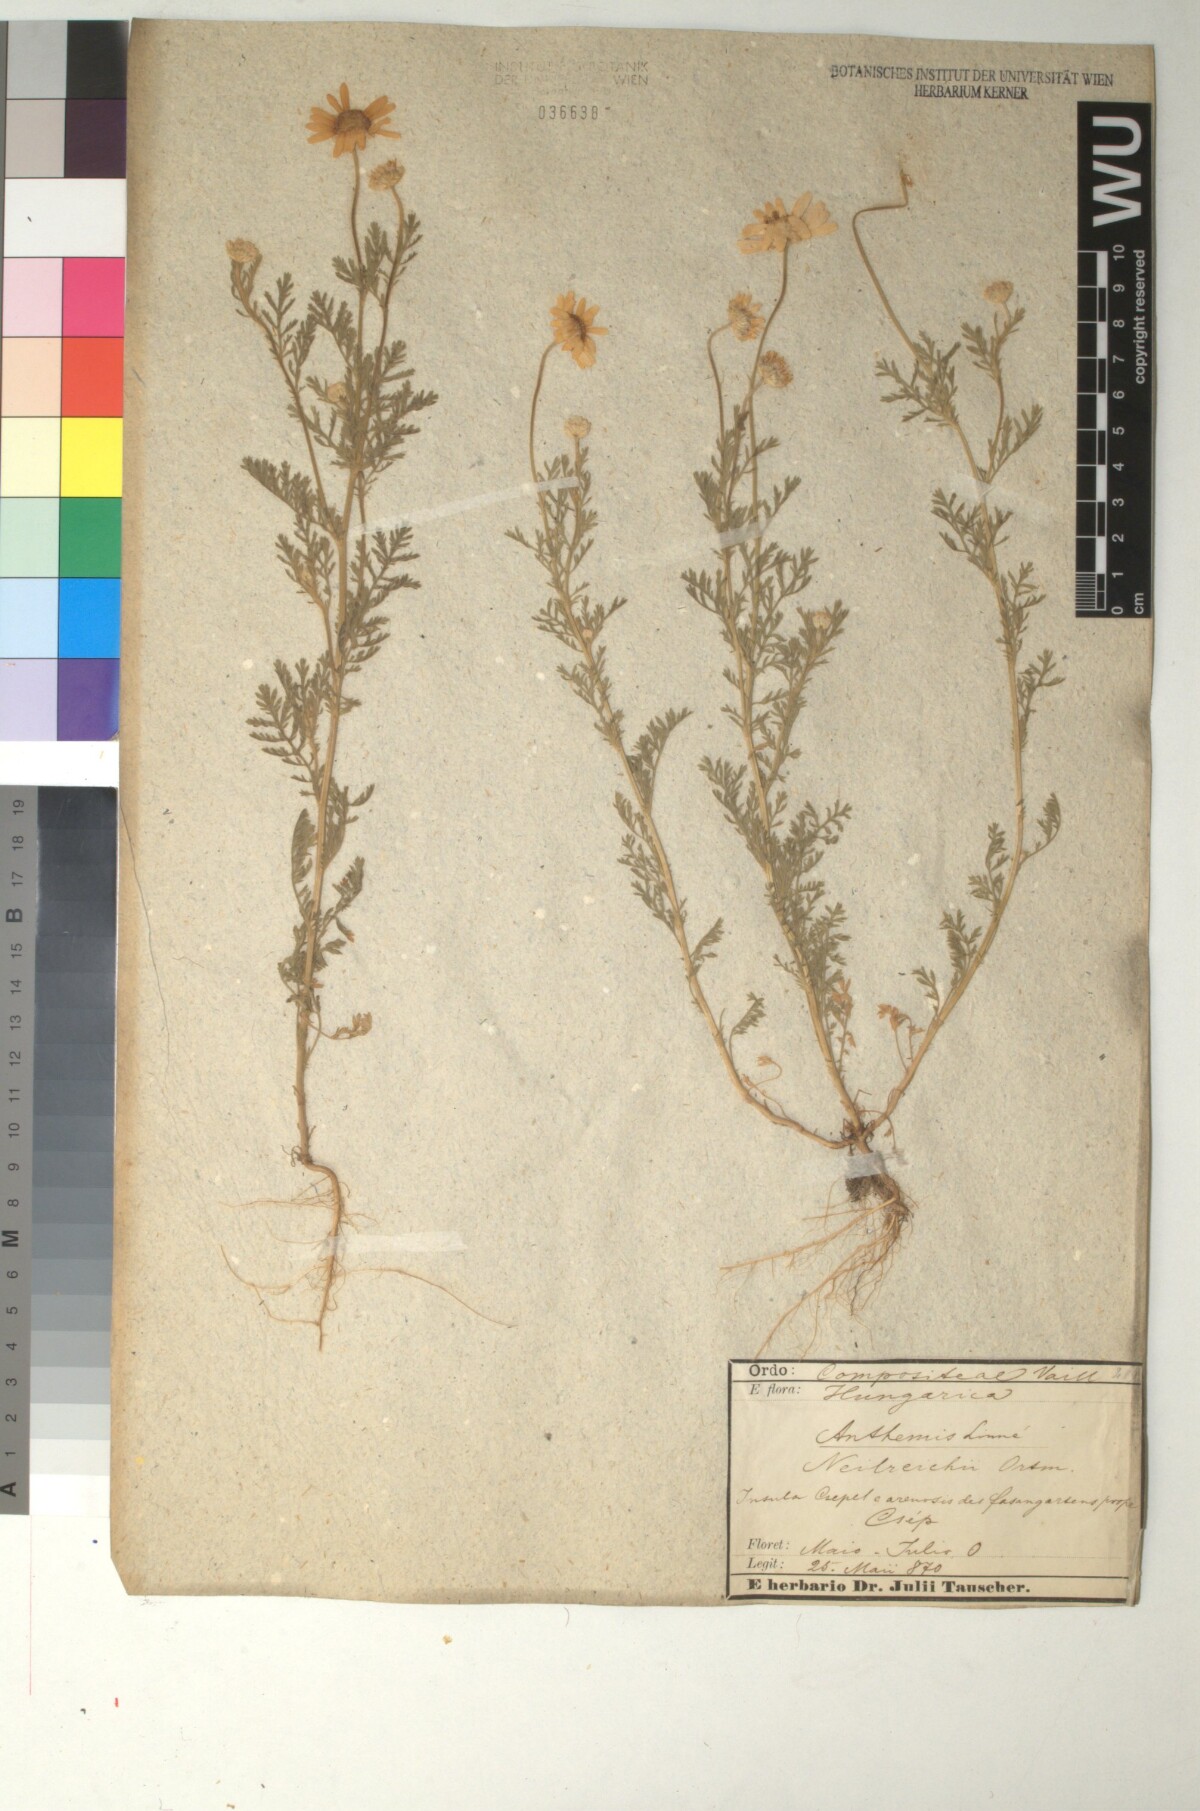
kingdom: Plantae
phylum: Tracheophyta
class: Magnoliopsida
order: Asterales
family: Asteraceae
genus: Anthemis
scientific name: Anthemis ruthenica
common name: Eastern chamomile
